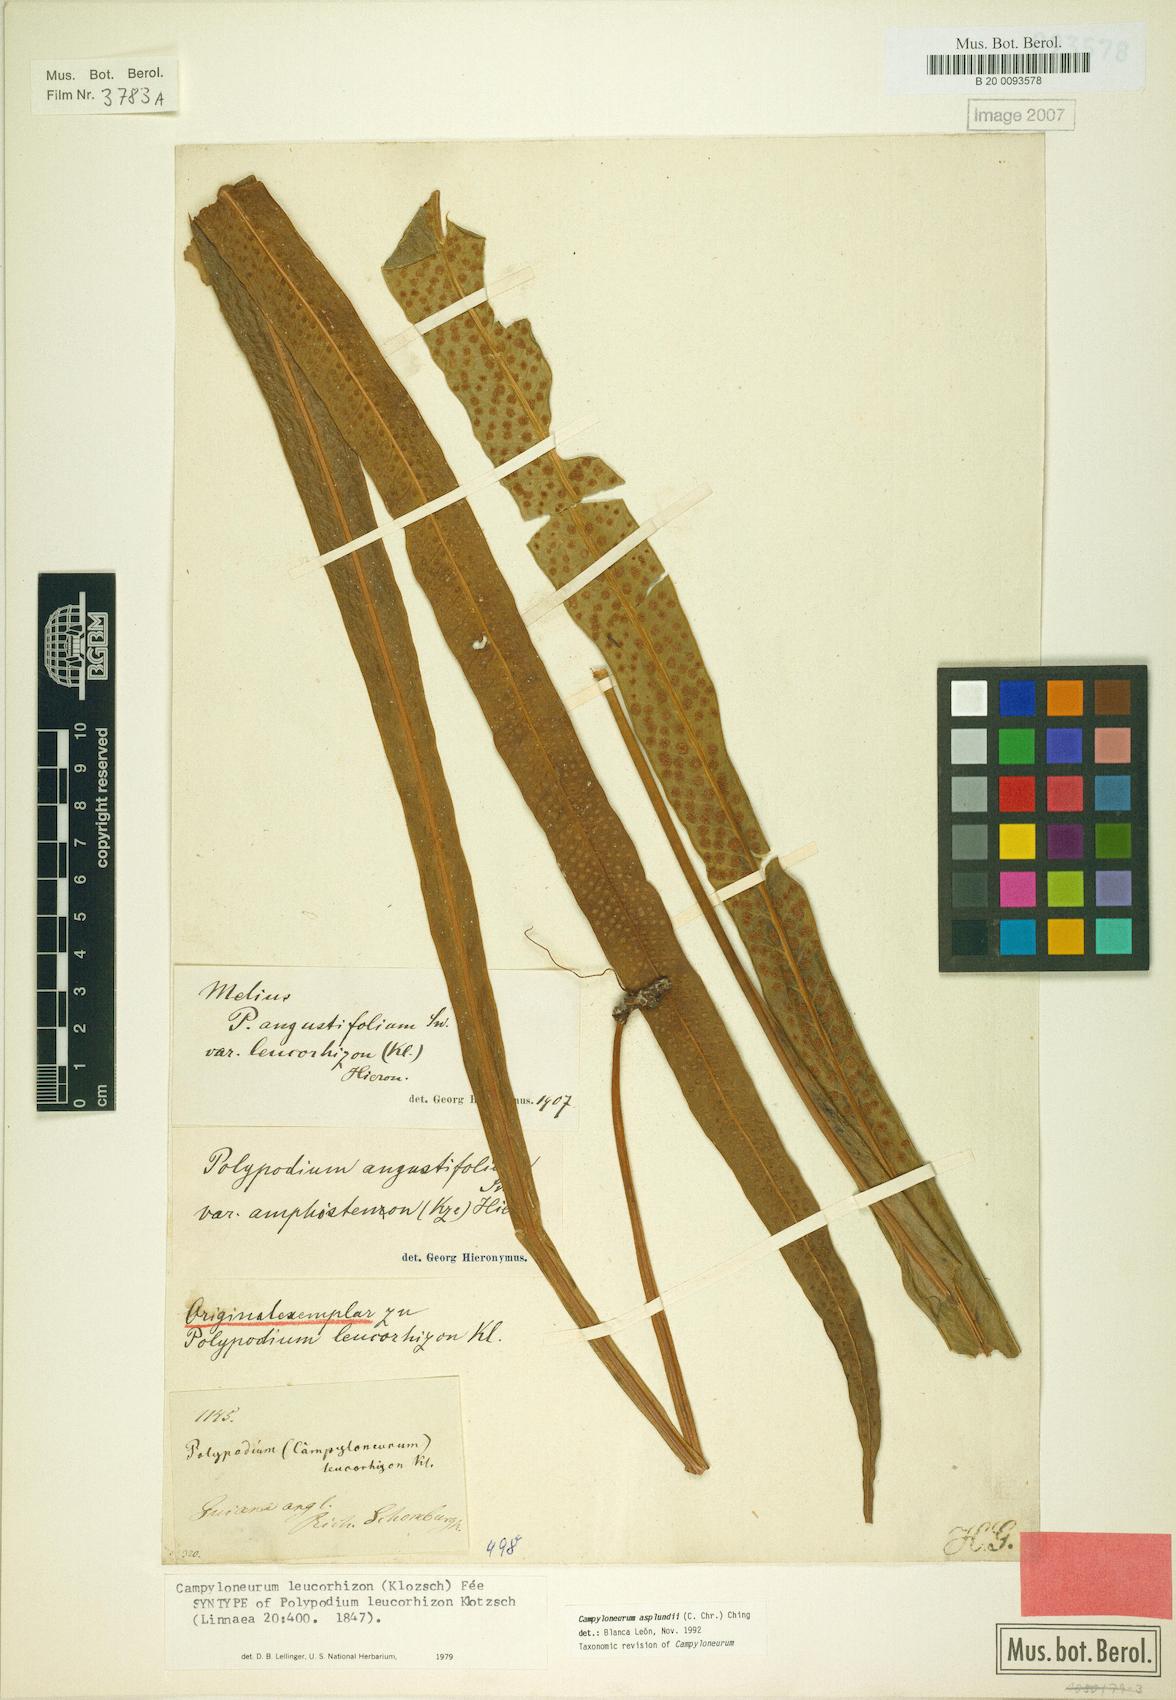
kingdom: Plantae
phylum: Tracheophyta
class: Polypodiopsida
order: Polypodiales
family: Polypodiaceae
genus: Campyloneurum
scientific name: Campyloneurum asplundii
